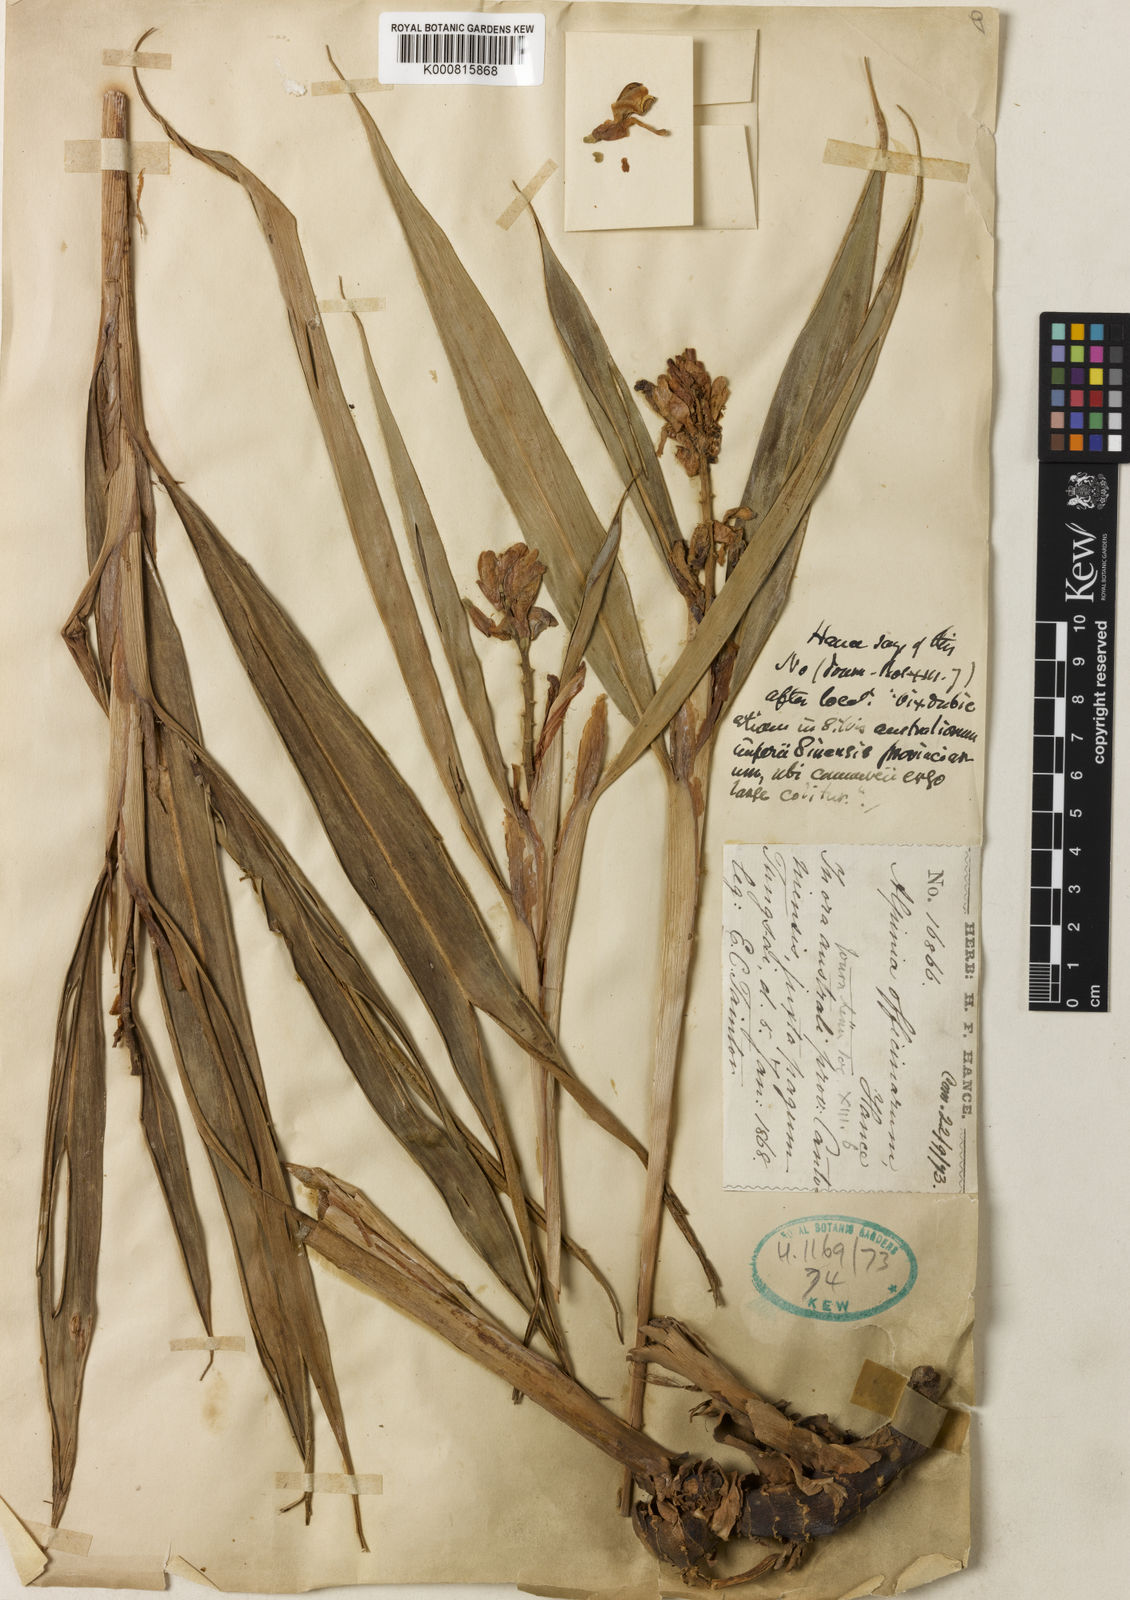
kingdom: Plantae
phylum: Tracheophyta
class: Liliopsida
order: Zingiberales
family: Zingiberaceae
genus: Alpinia
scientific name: Alpinia officinarum
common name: Chinese-ginger
